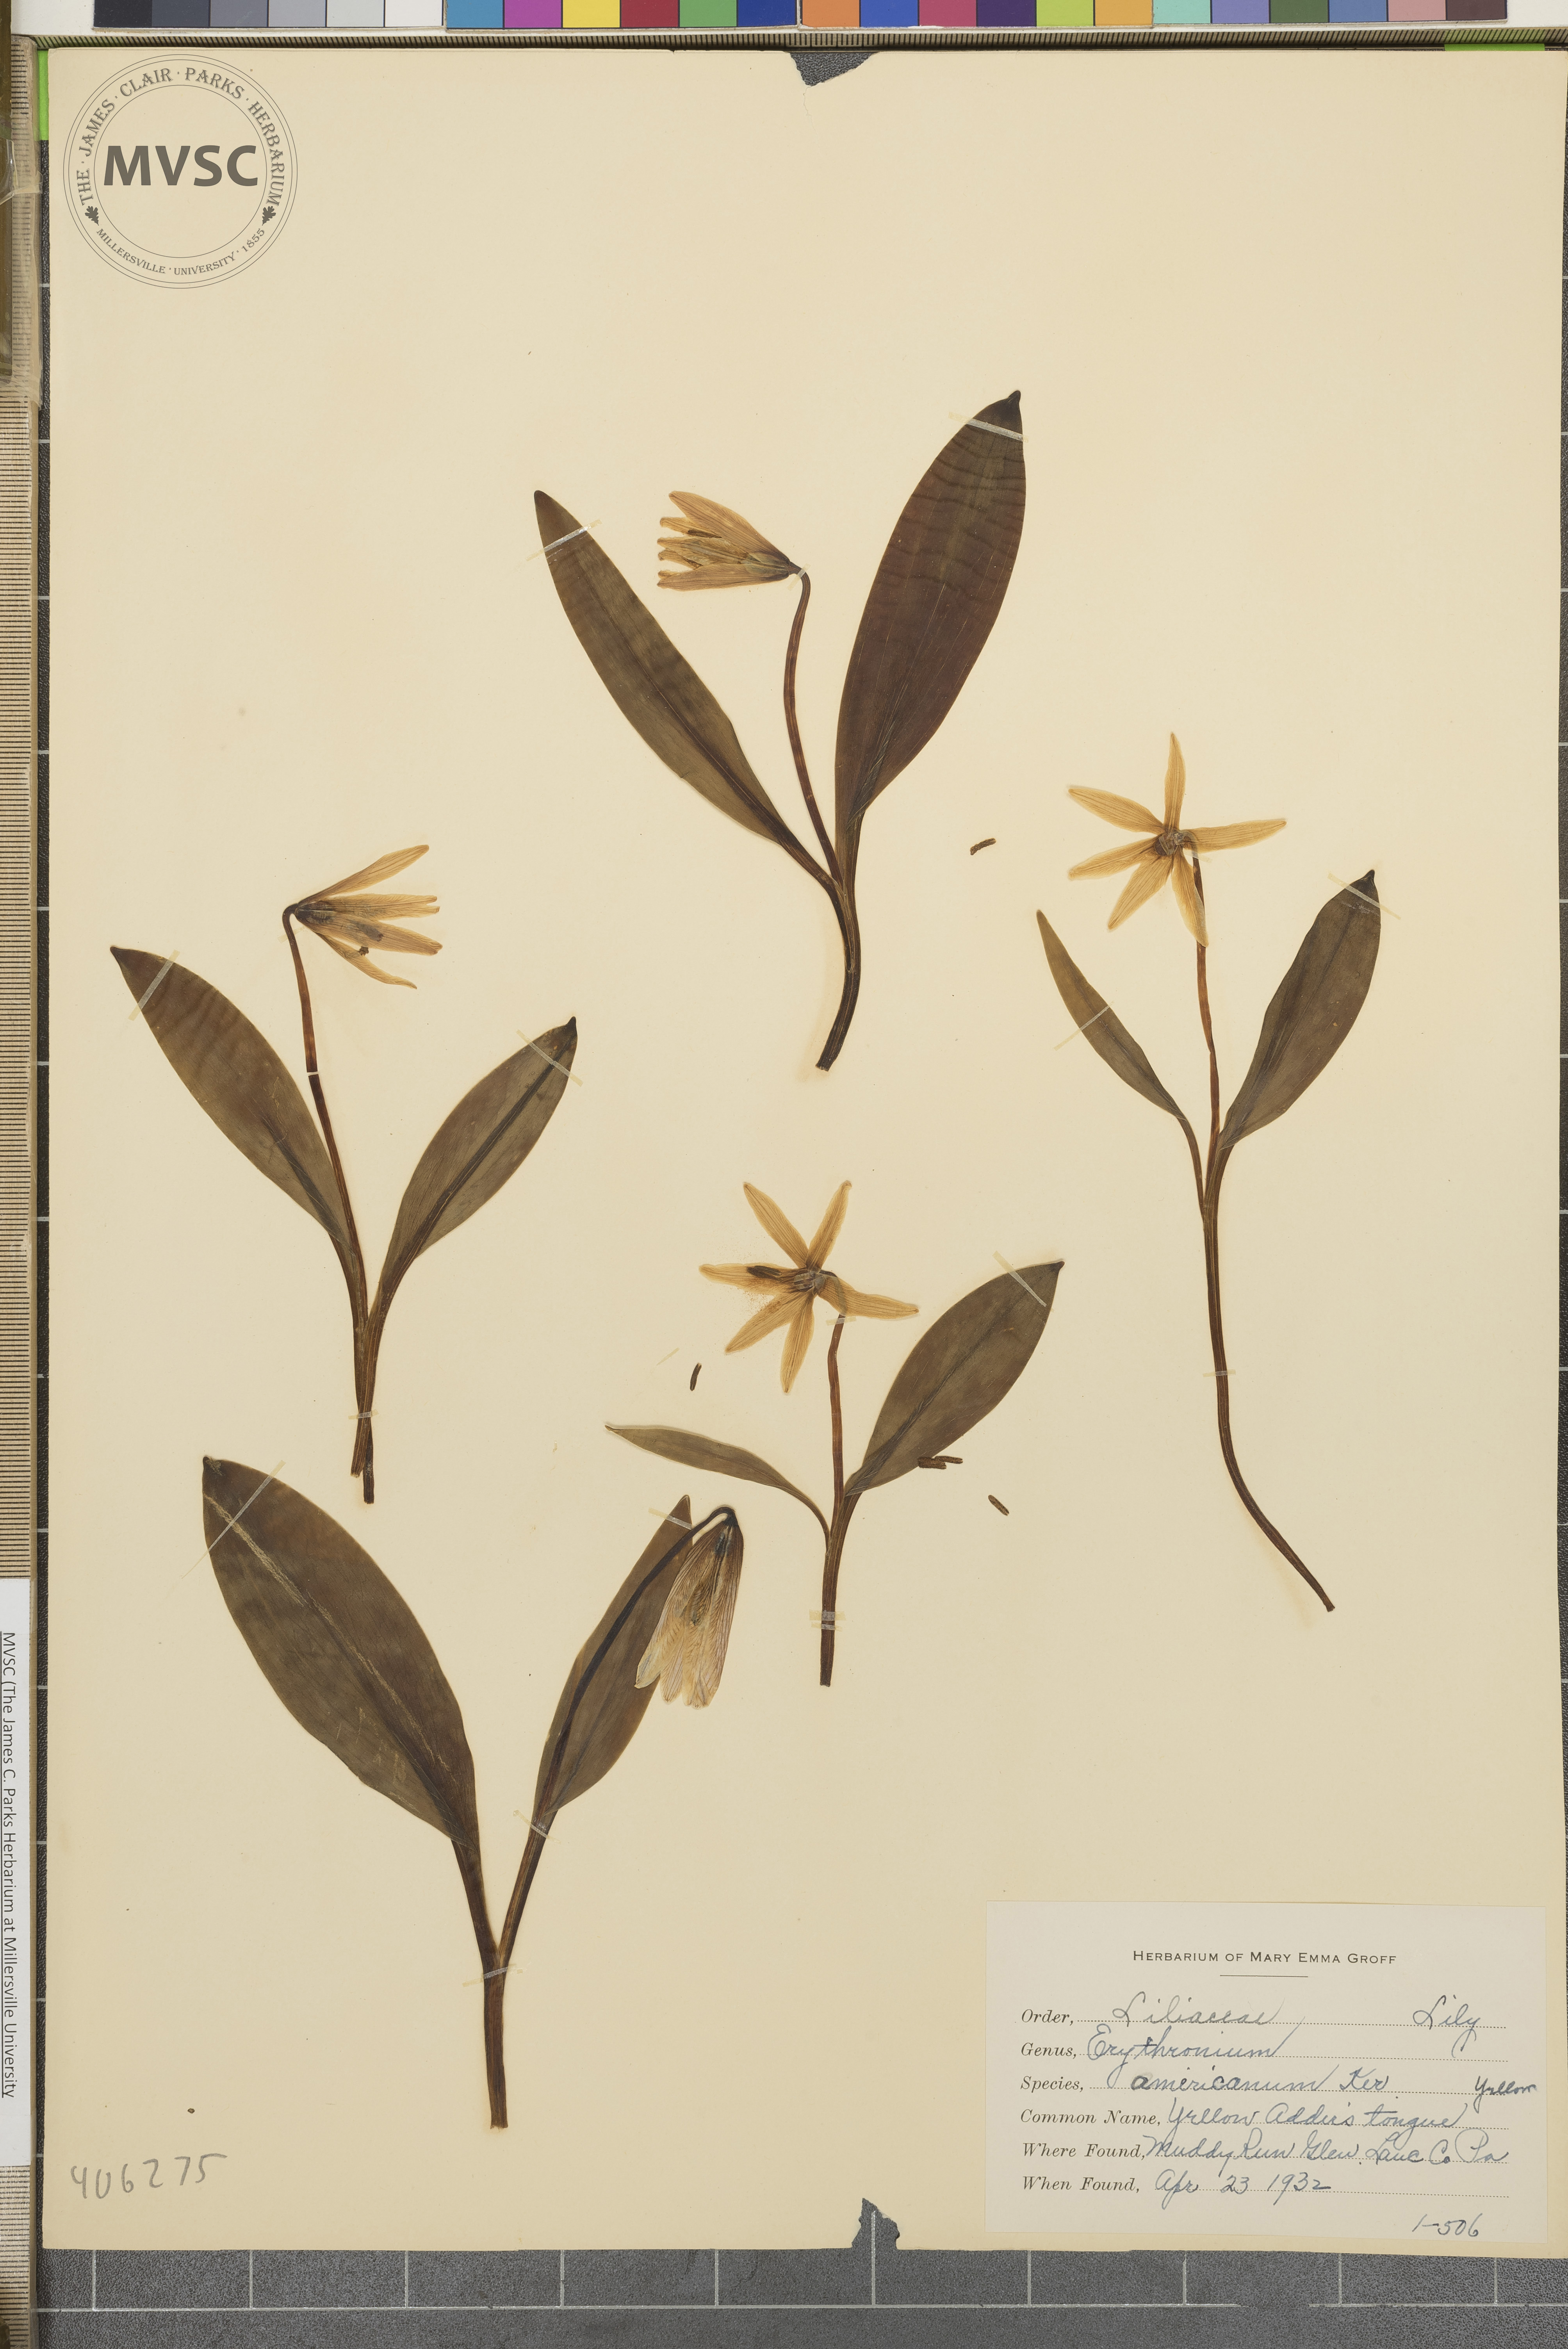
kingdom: Plantae
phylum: Tracheophyta
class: Liliopsida
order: Liliales
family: Liliaceae
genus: Erythronium
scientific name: Erythronium americanum
